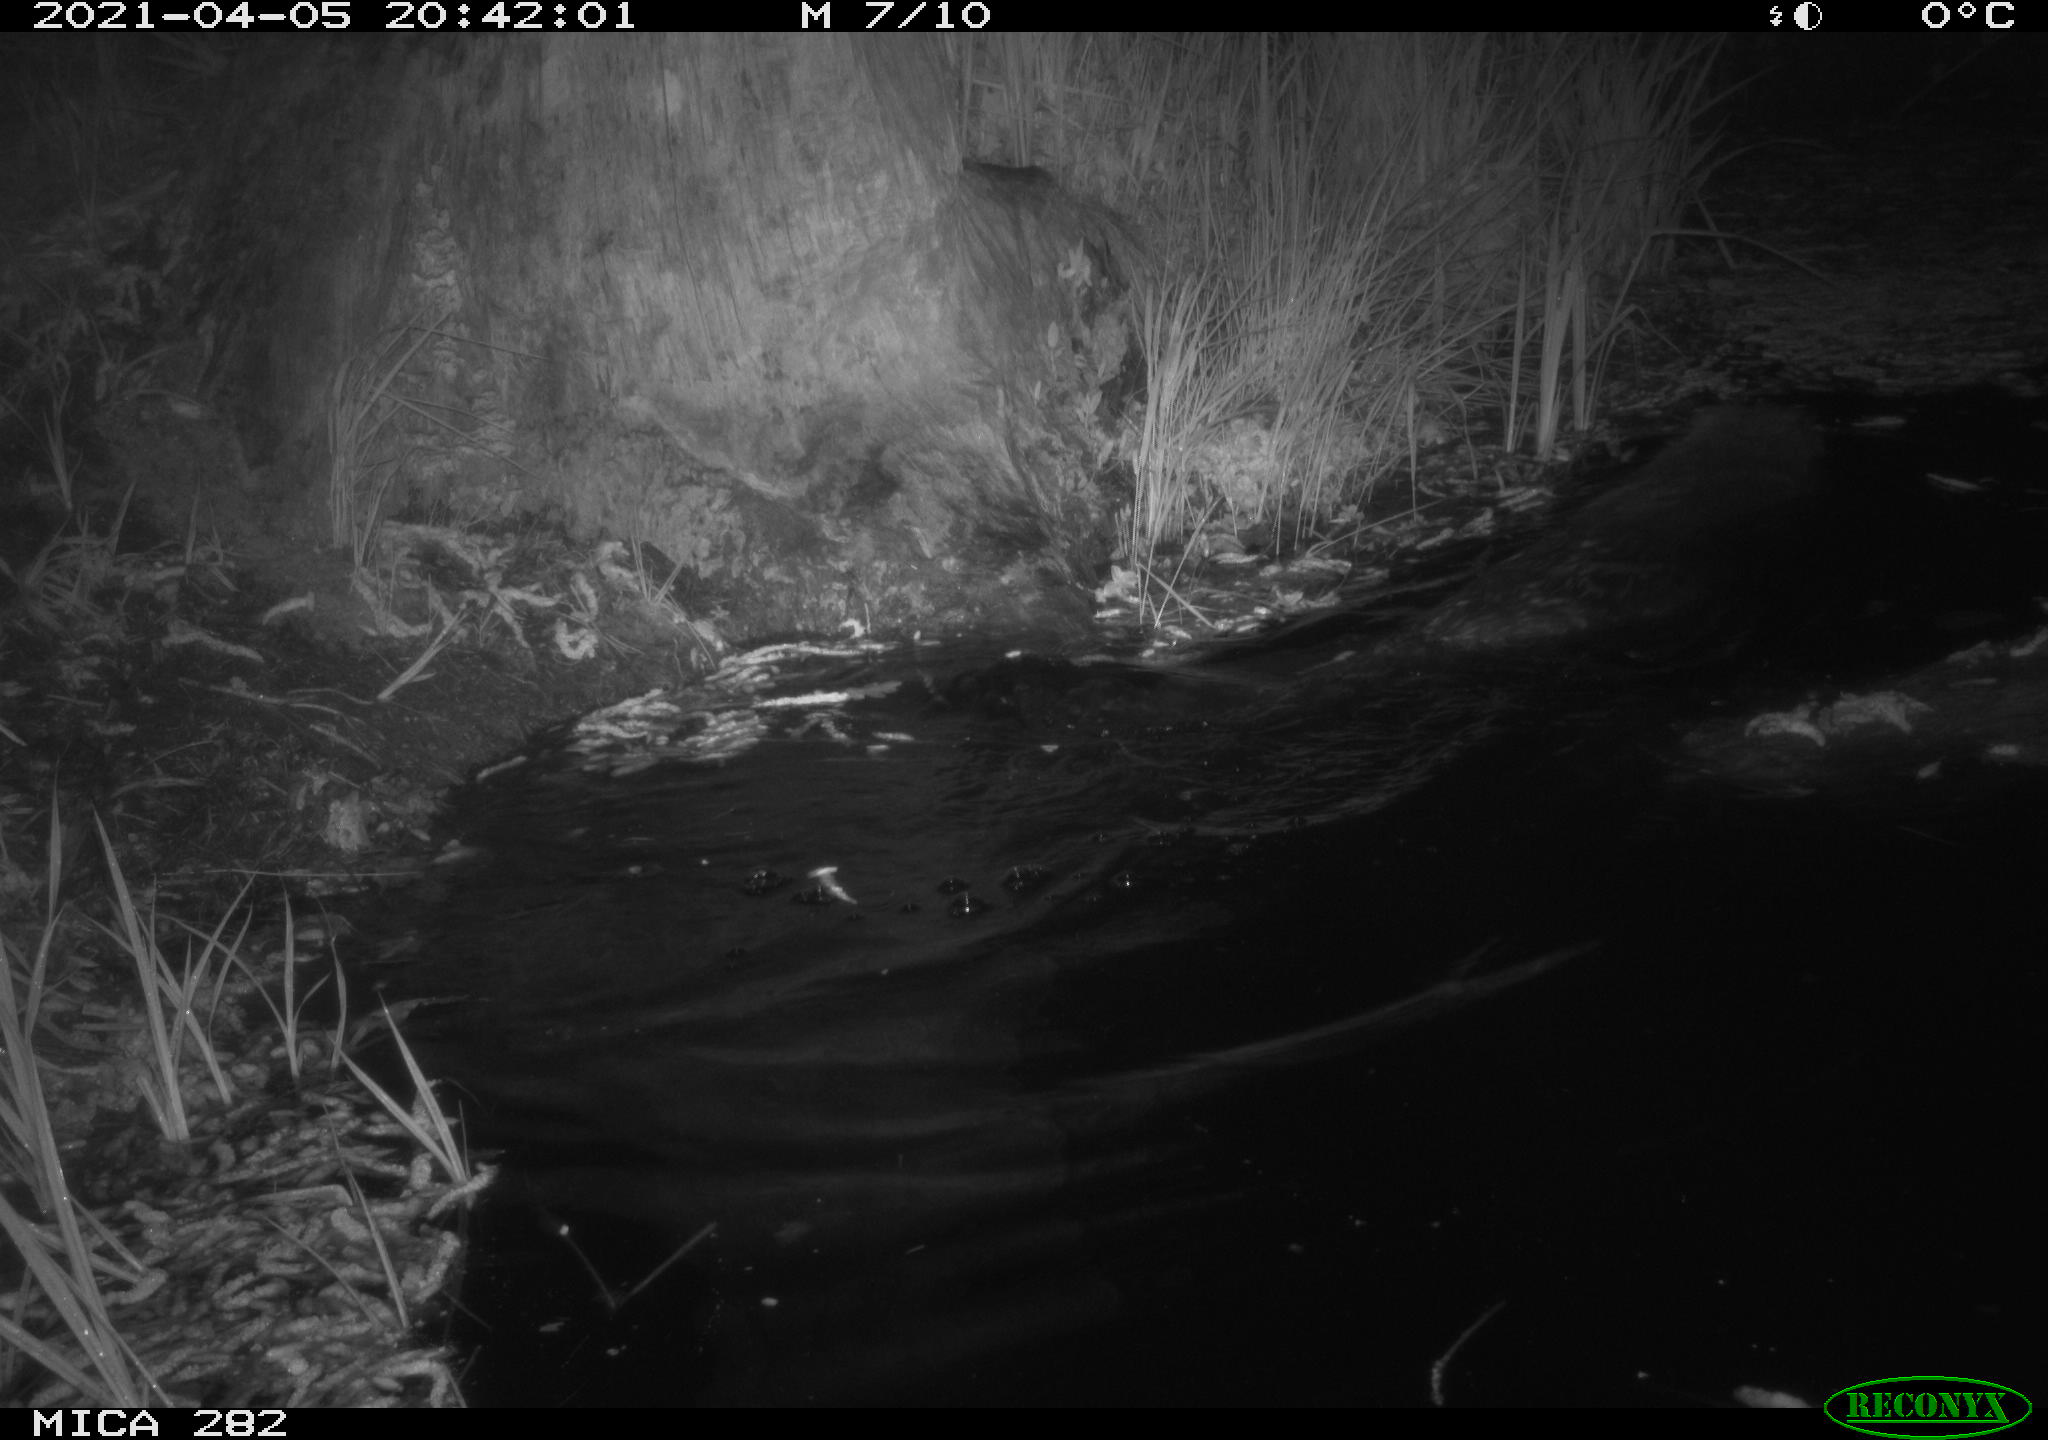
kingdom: Animalia
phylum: Chordata
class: Mammalia
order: Rodentia
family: Castoridae
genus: Castor
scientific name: Castor fiber
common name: Eurasian beaver
